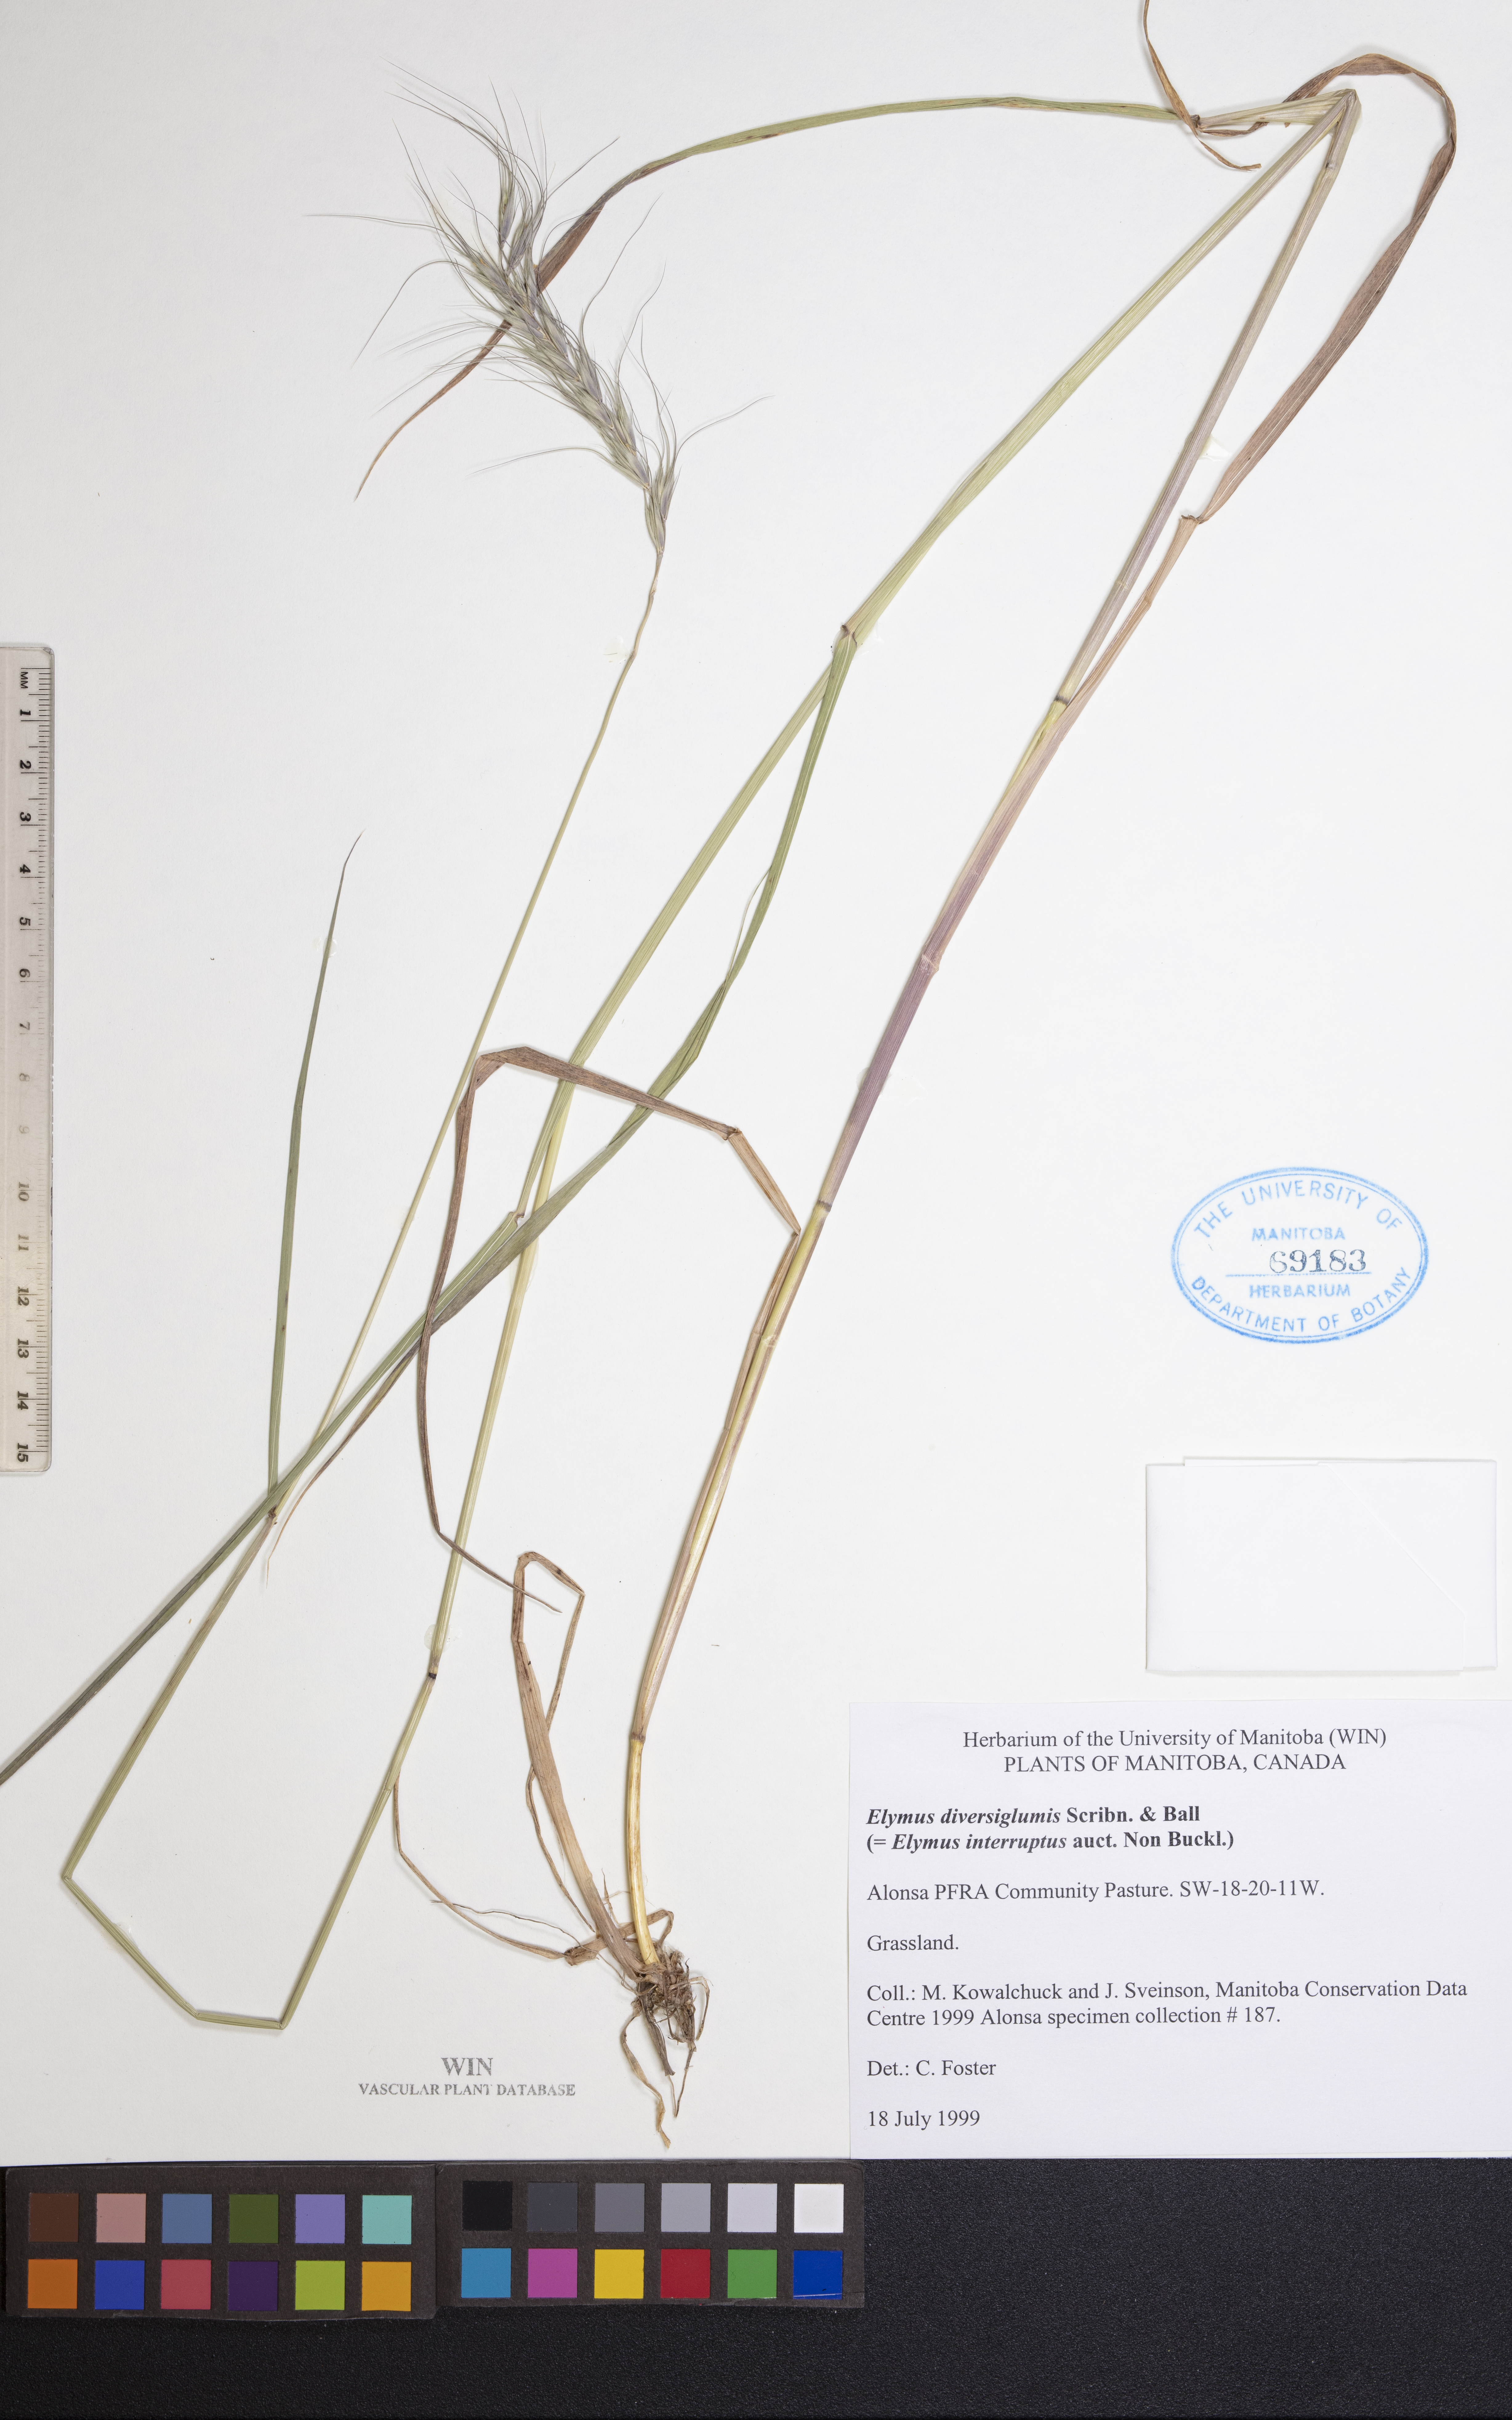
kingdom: Plantae
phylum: Tracheophyta
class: Liliopsida
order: Poales
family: Poaceae
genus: Elymus
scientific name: Elymus diversiglumis
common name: Minnesota wildrye
